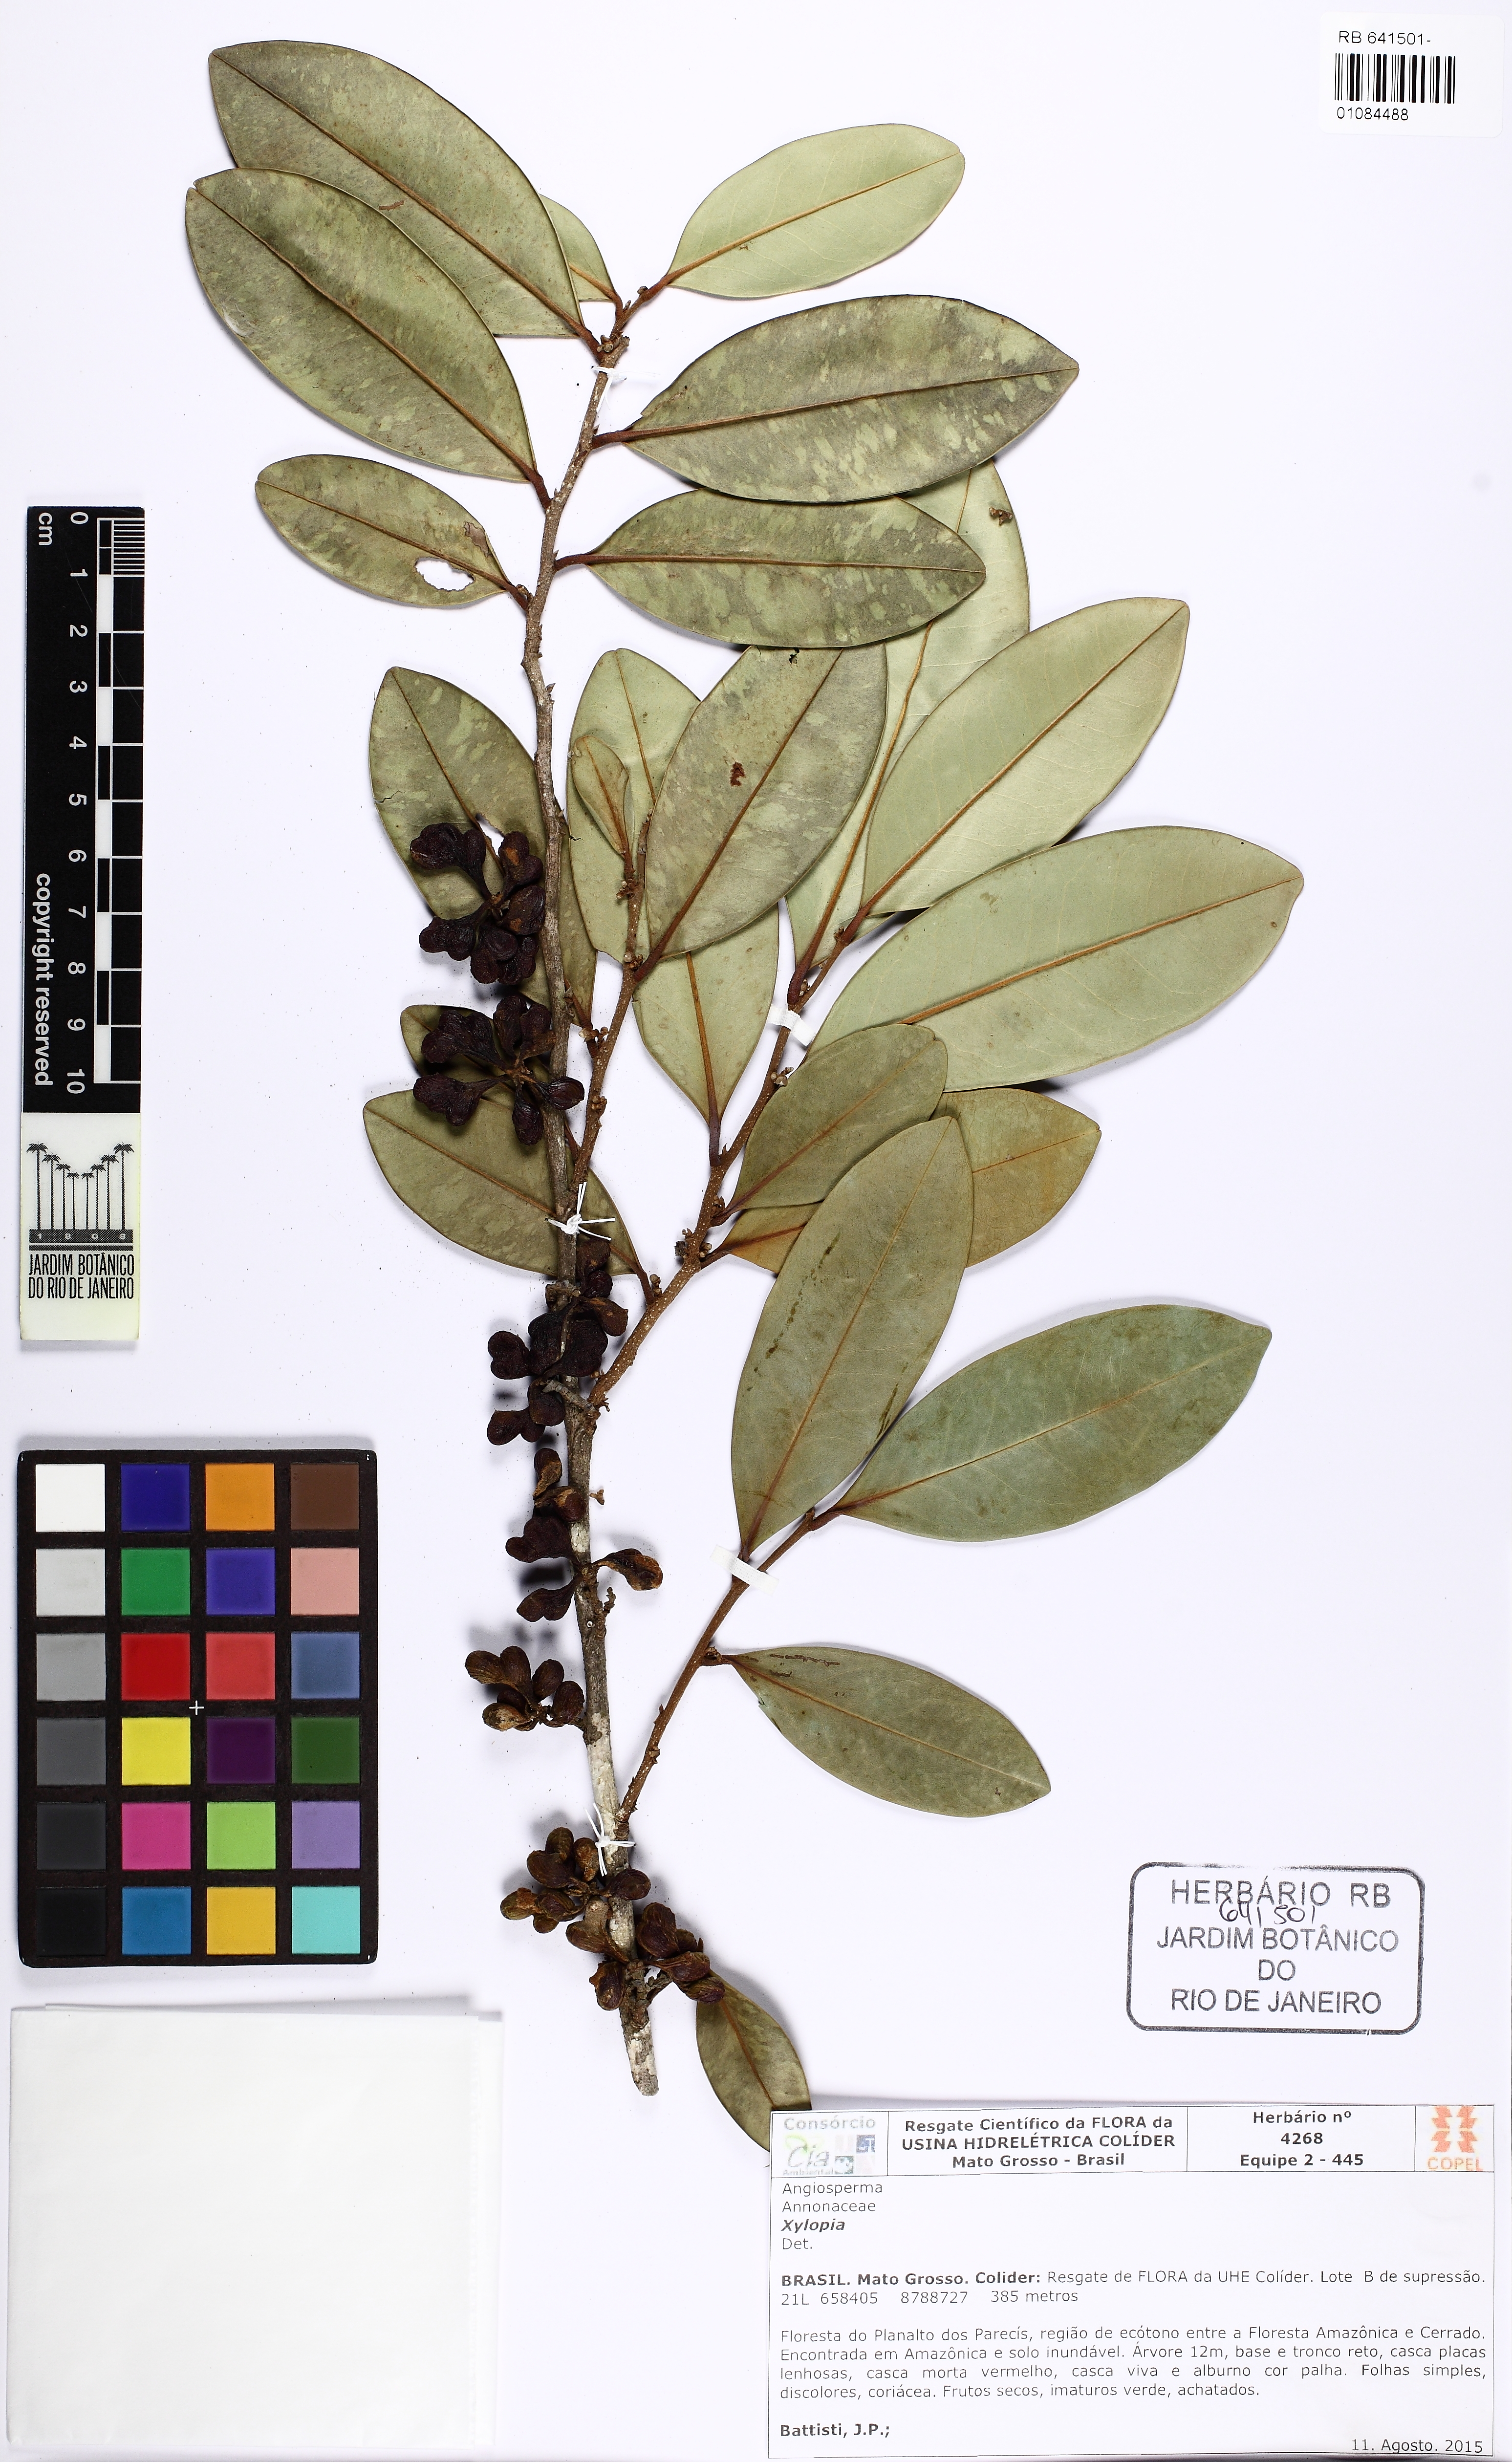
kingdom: Plantae
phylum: Tracheophyta
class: Magnoliopsida
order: Magnoliales
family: Annonaceae
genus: Xylopia
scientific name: Xylopia nitida
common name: White kuyama
